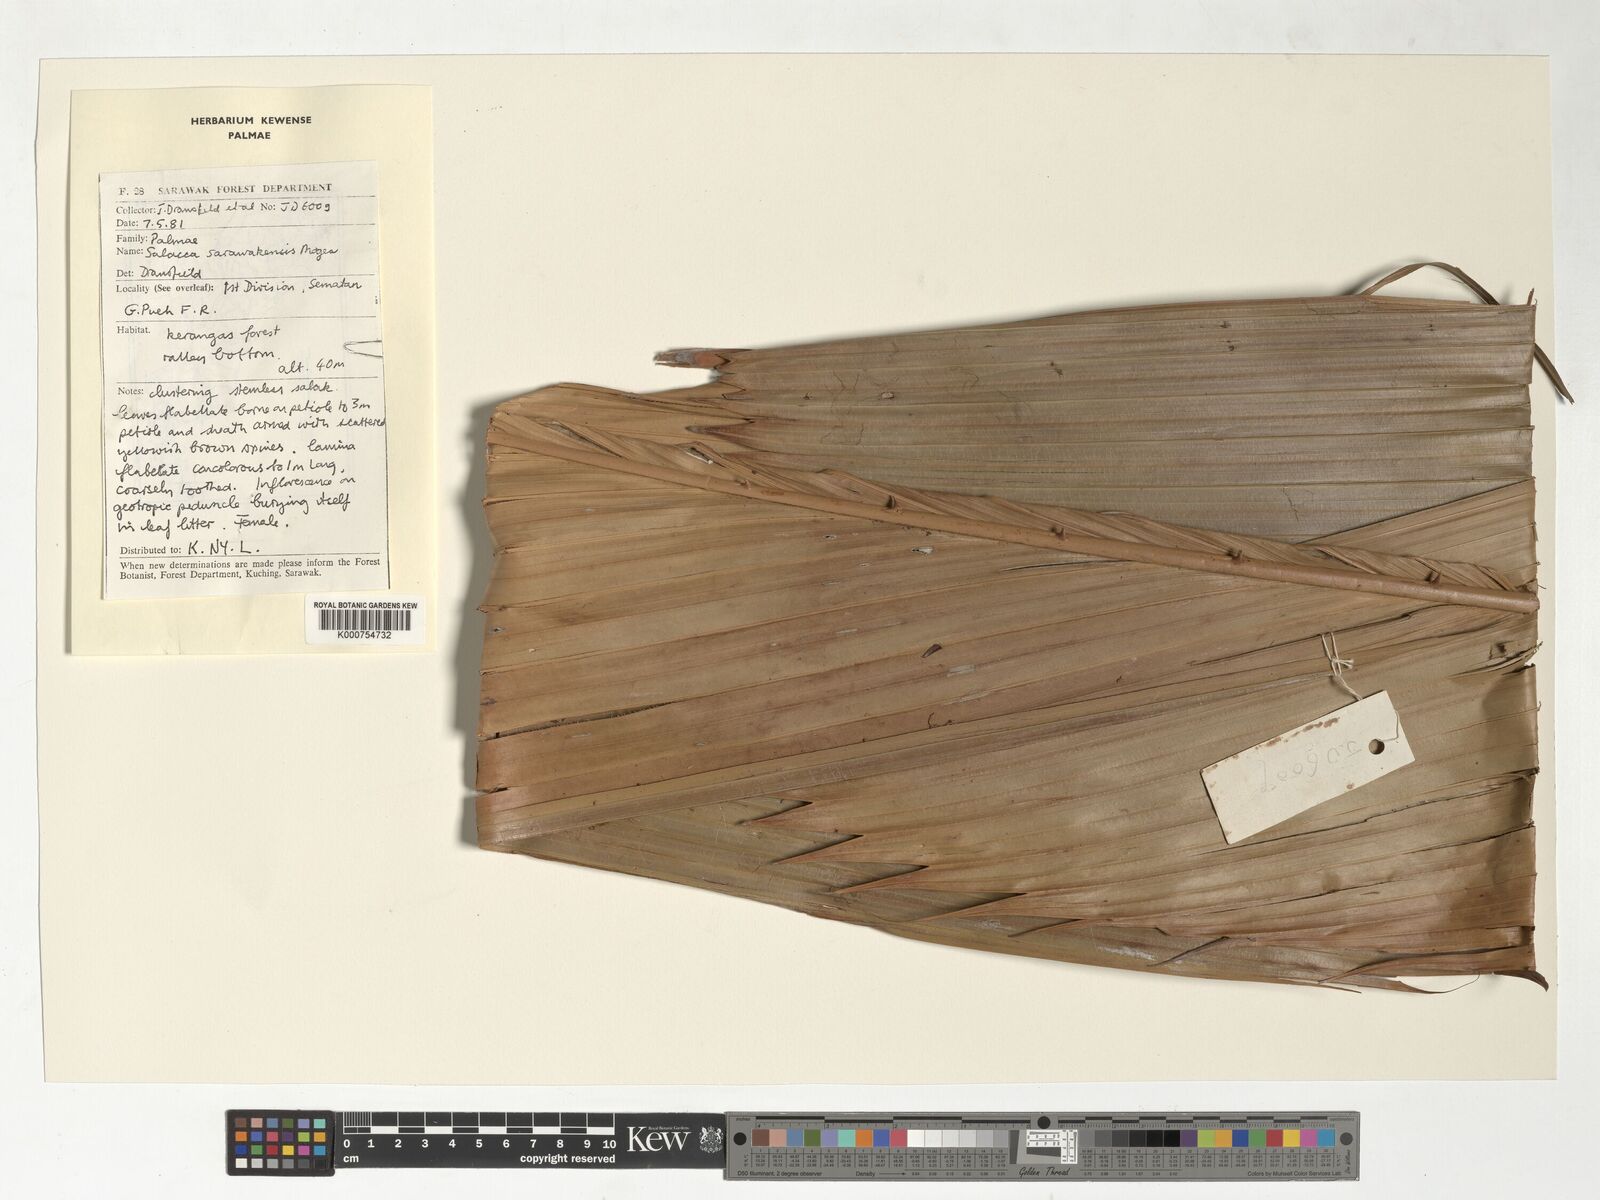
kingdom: Plantae
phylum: Tracheophyta
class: Liliopsida
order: Arecales
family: Arecaceae
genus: Salacca
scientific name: Salacca sarawakensis
